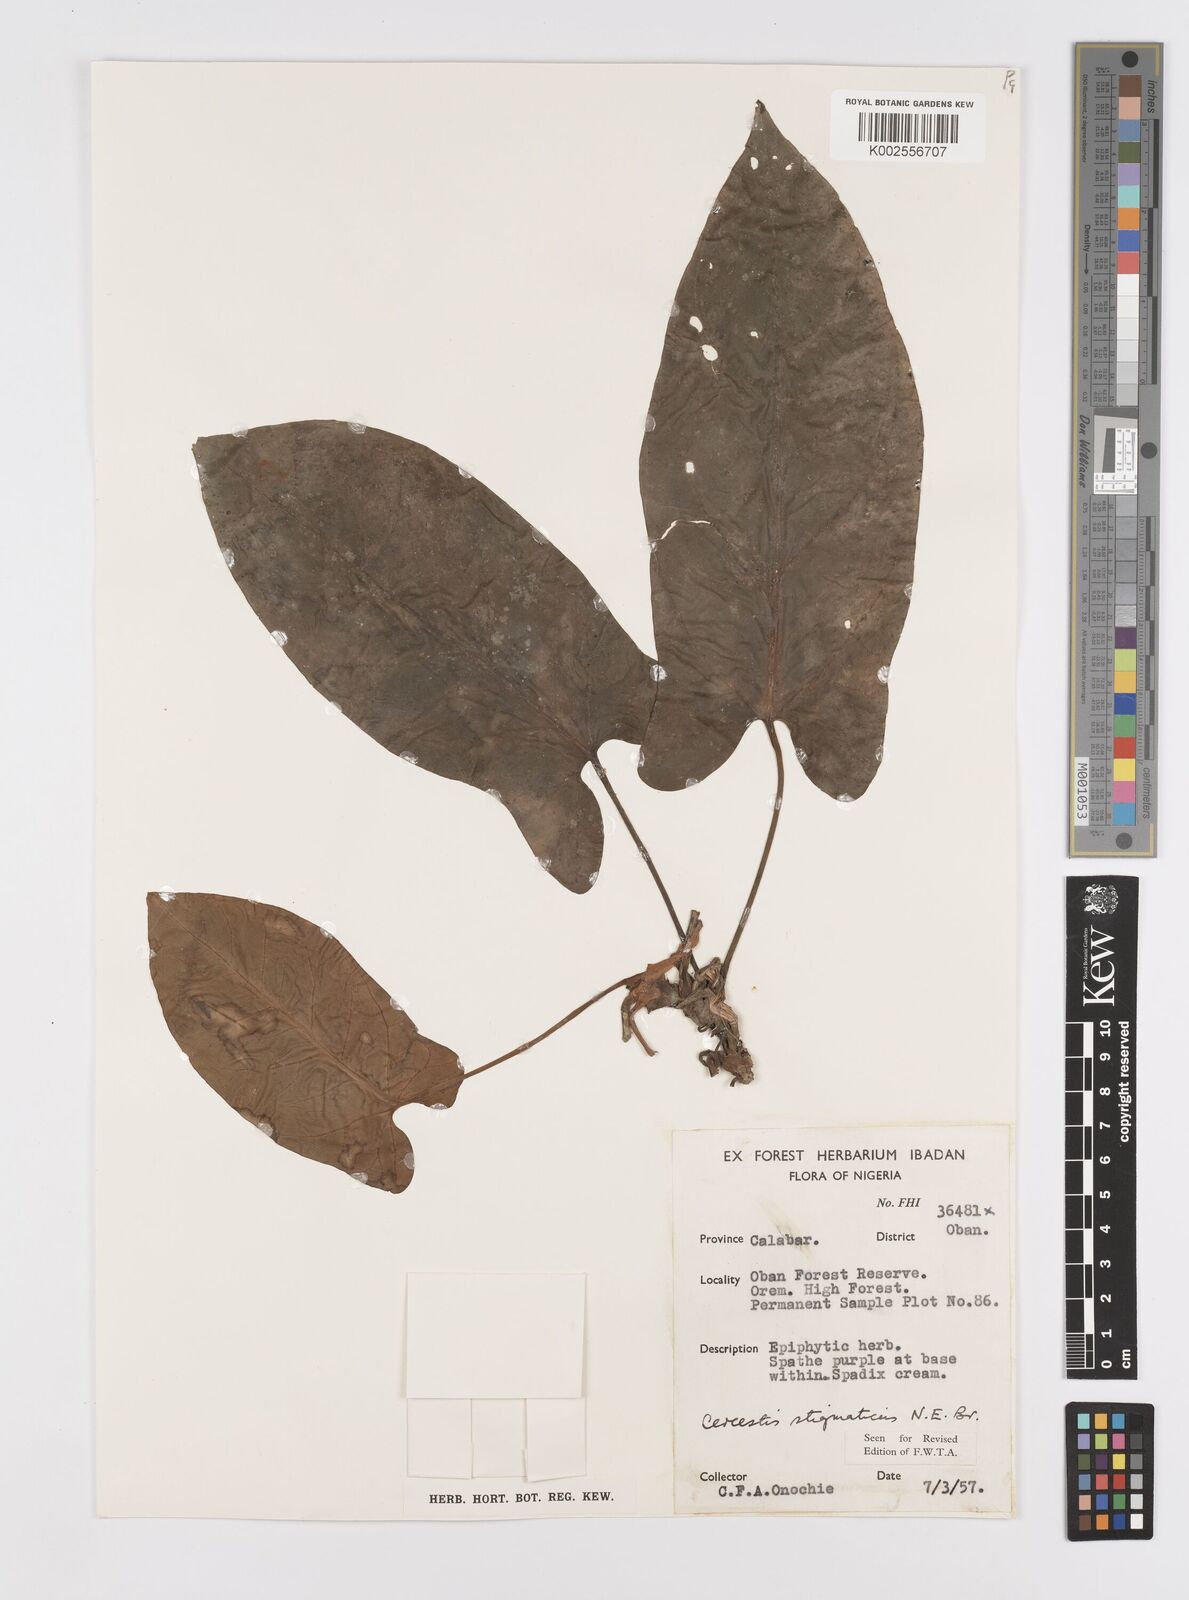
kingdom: Plantae
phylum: Tracheophyta
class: Liliopsida
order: Alismatales
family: Araceae
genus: Cercestis
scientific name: Cercestis dinklagei
